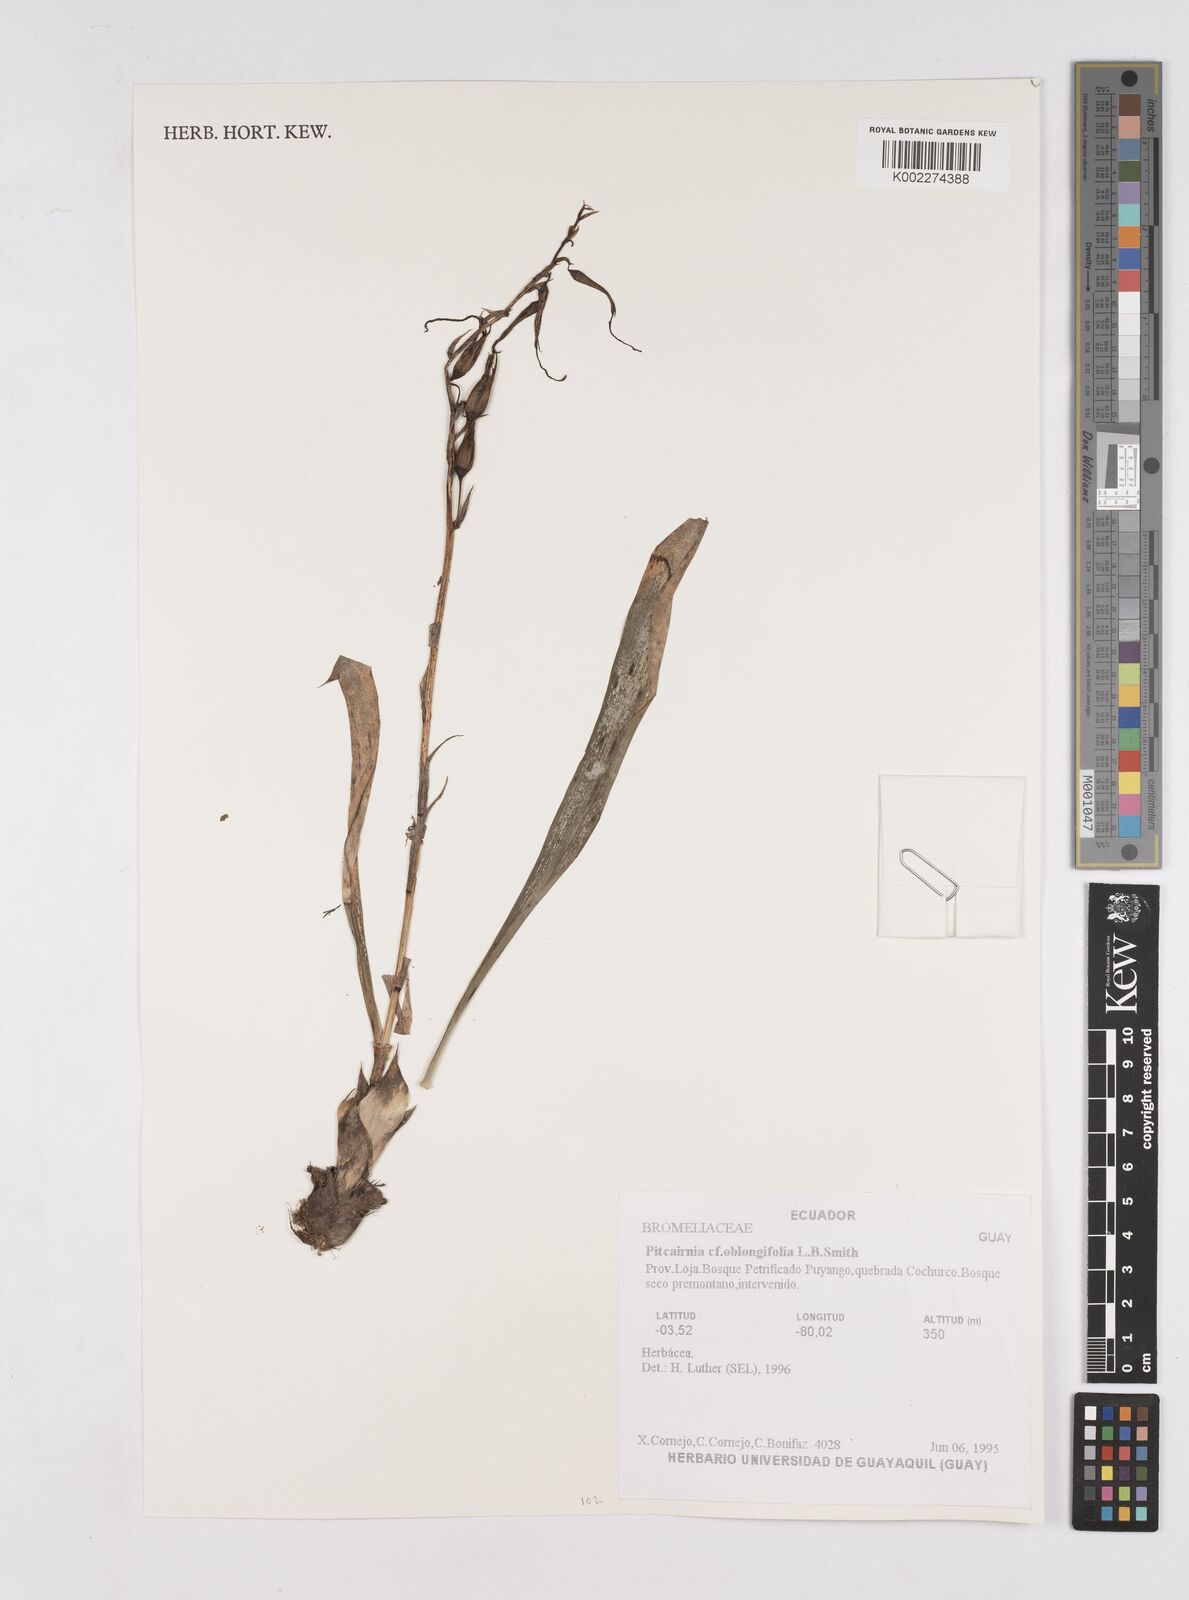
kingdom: Plantae
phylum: Tracheophyta
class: Liliopsida
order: Poales
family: Bromeliaceae
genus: Pitcairnia
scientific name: Pitcairnia oblongifolia
